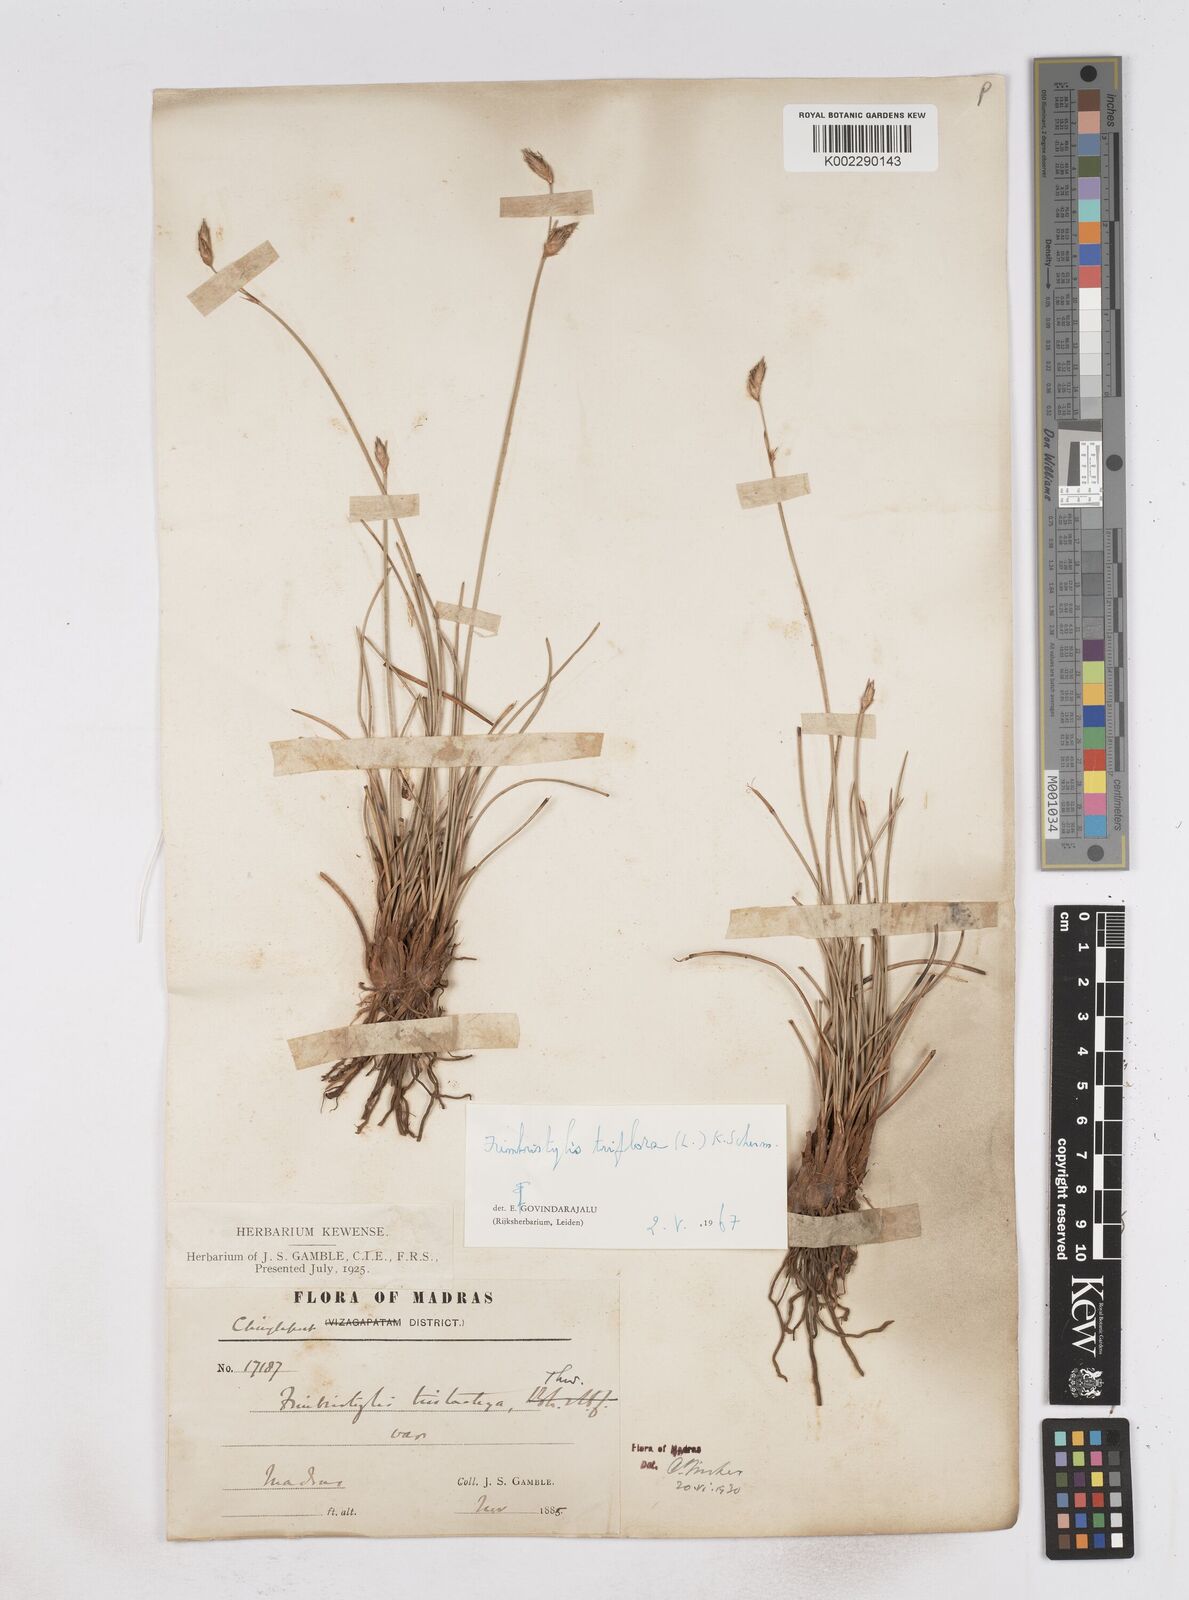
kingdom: Plantae
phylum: Tracheophyta
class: Liliopsida
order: Poales
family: Cyperaceae
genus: Abildgaardia
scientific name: Abildgaardia triflora
